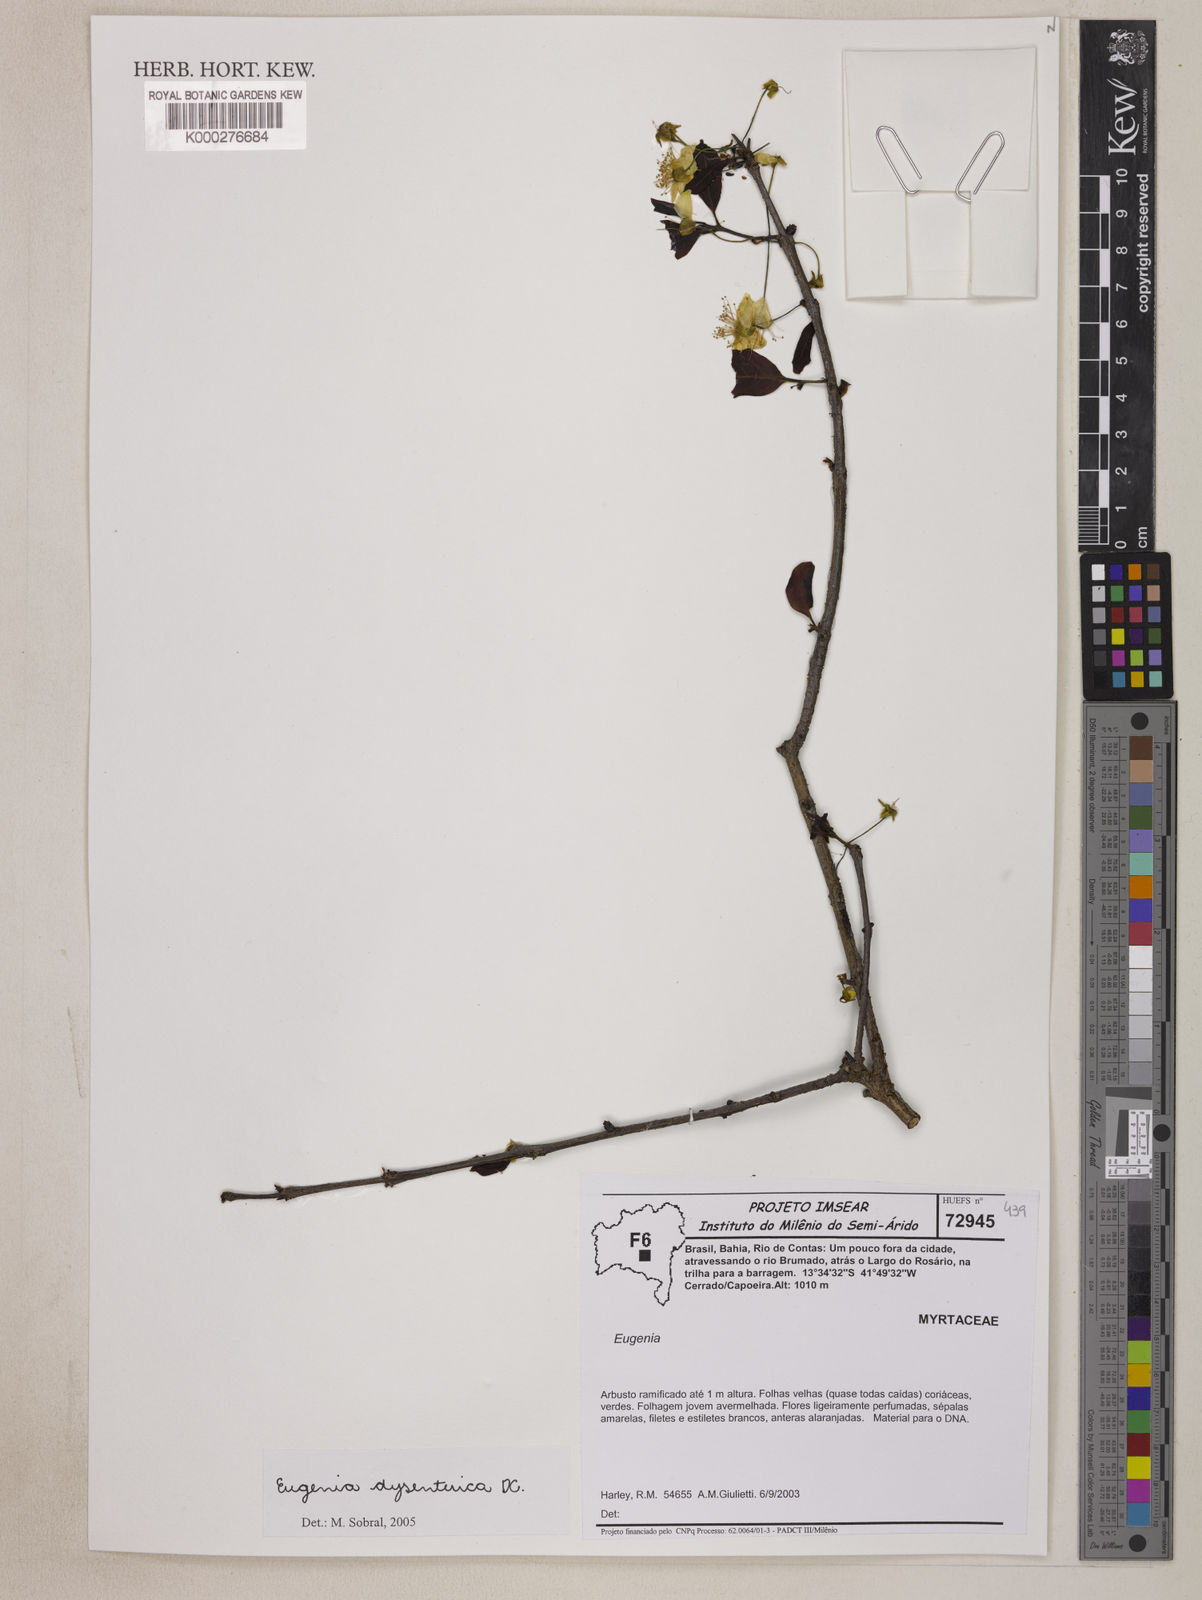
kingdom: Plantae
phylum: Tracheophyta
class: Magnoliopsida
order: Myrtales
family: Myrtaceae
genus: Eugenia
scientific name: Eugenia dysenterica
